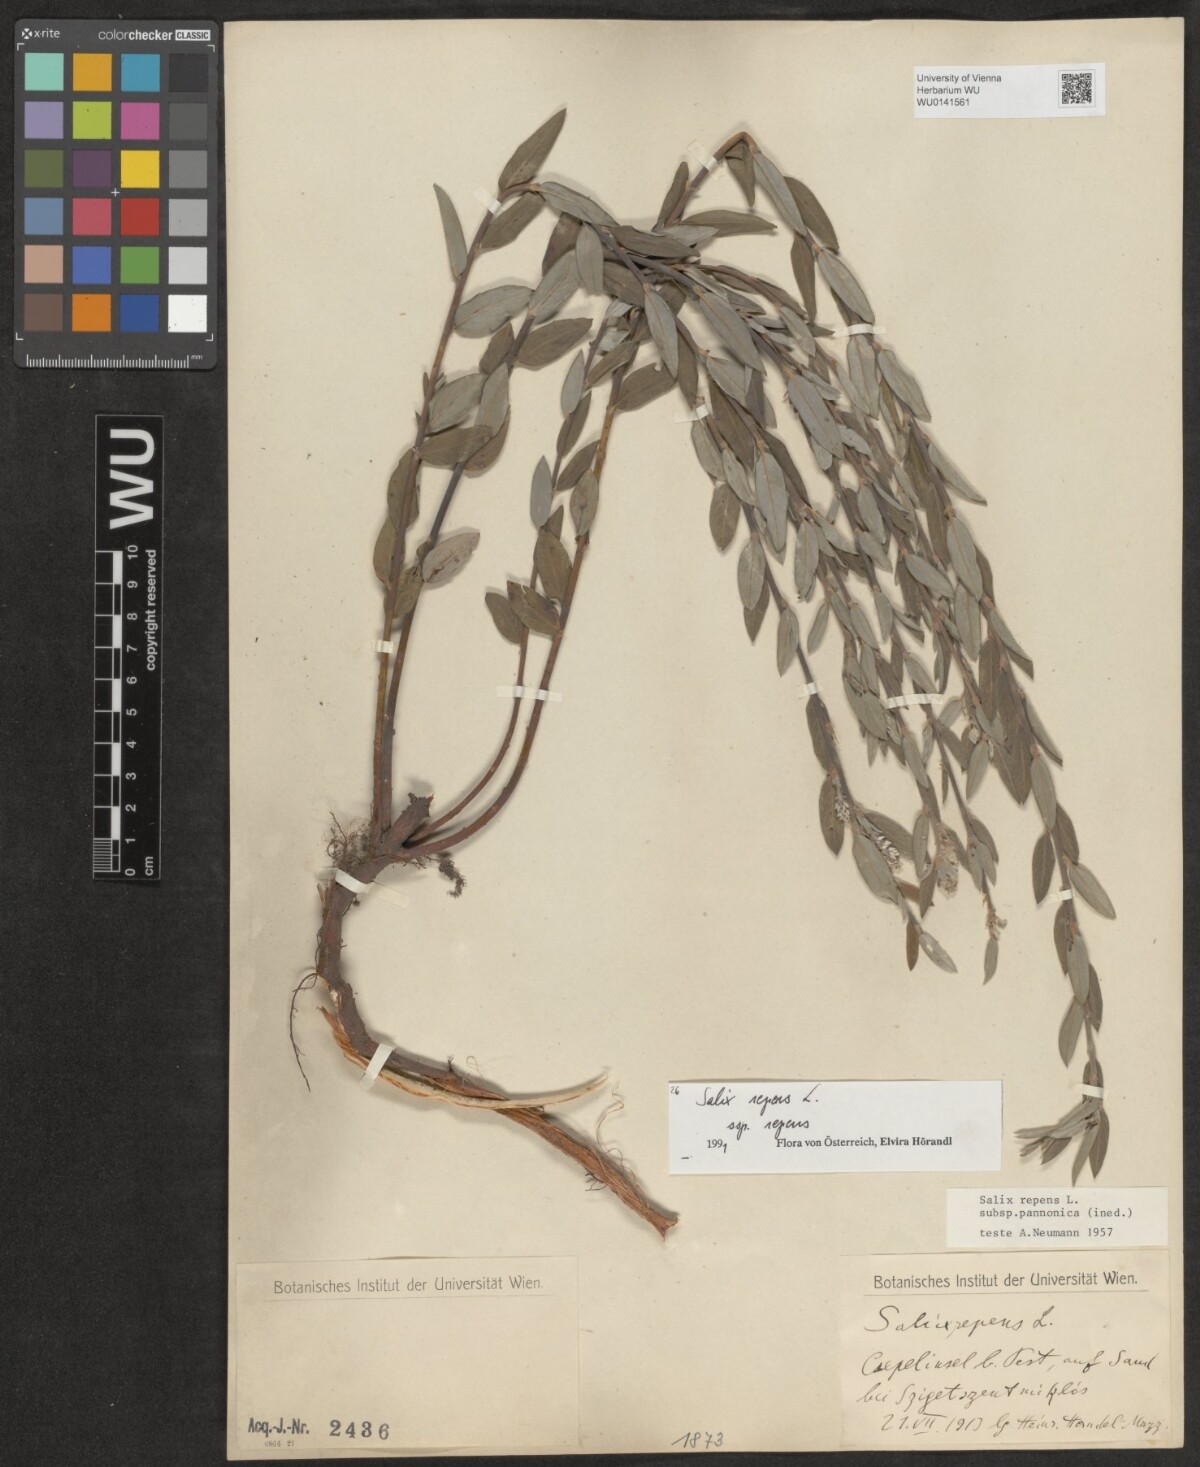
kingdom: Plantae
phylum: Tracheophyta
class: Magnoliopsida
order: Malpighiales
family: Salicaceae
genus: Salix
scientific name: Salix repens
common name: Creeping willow
